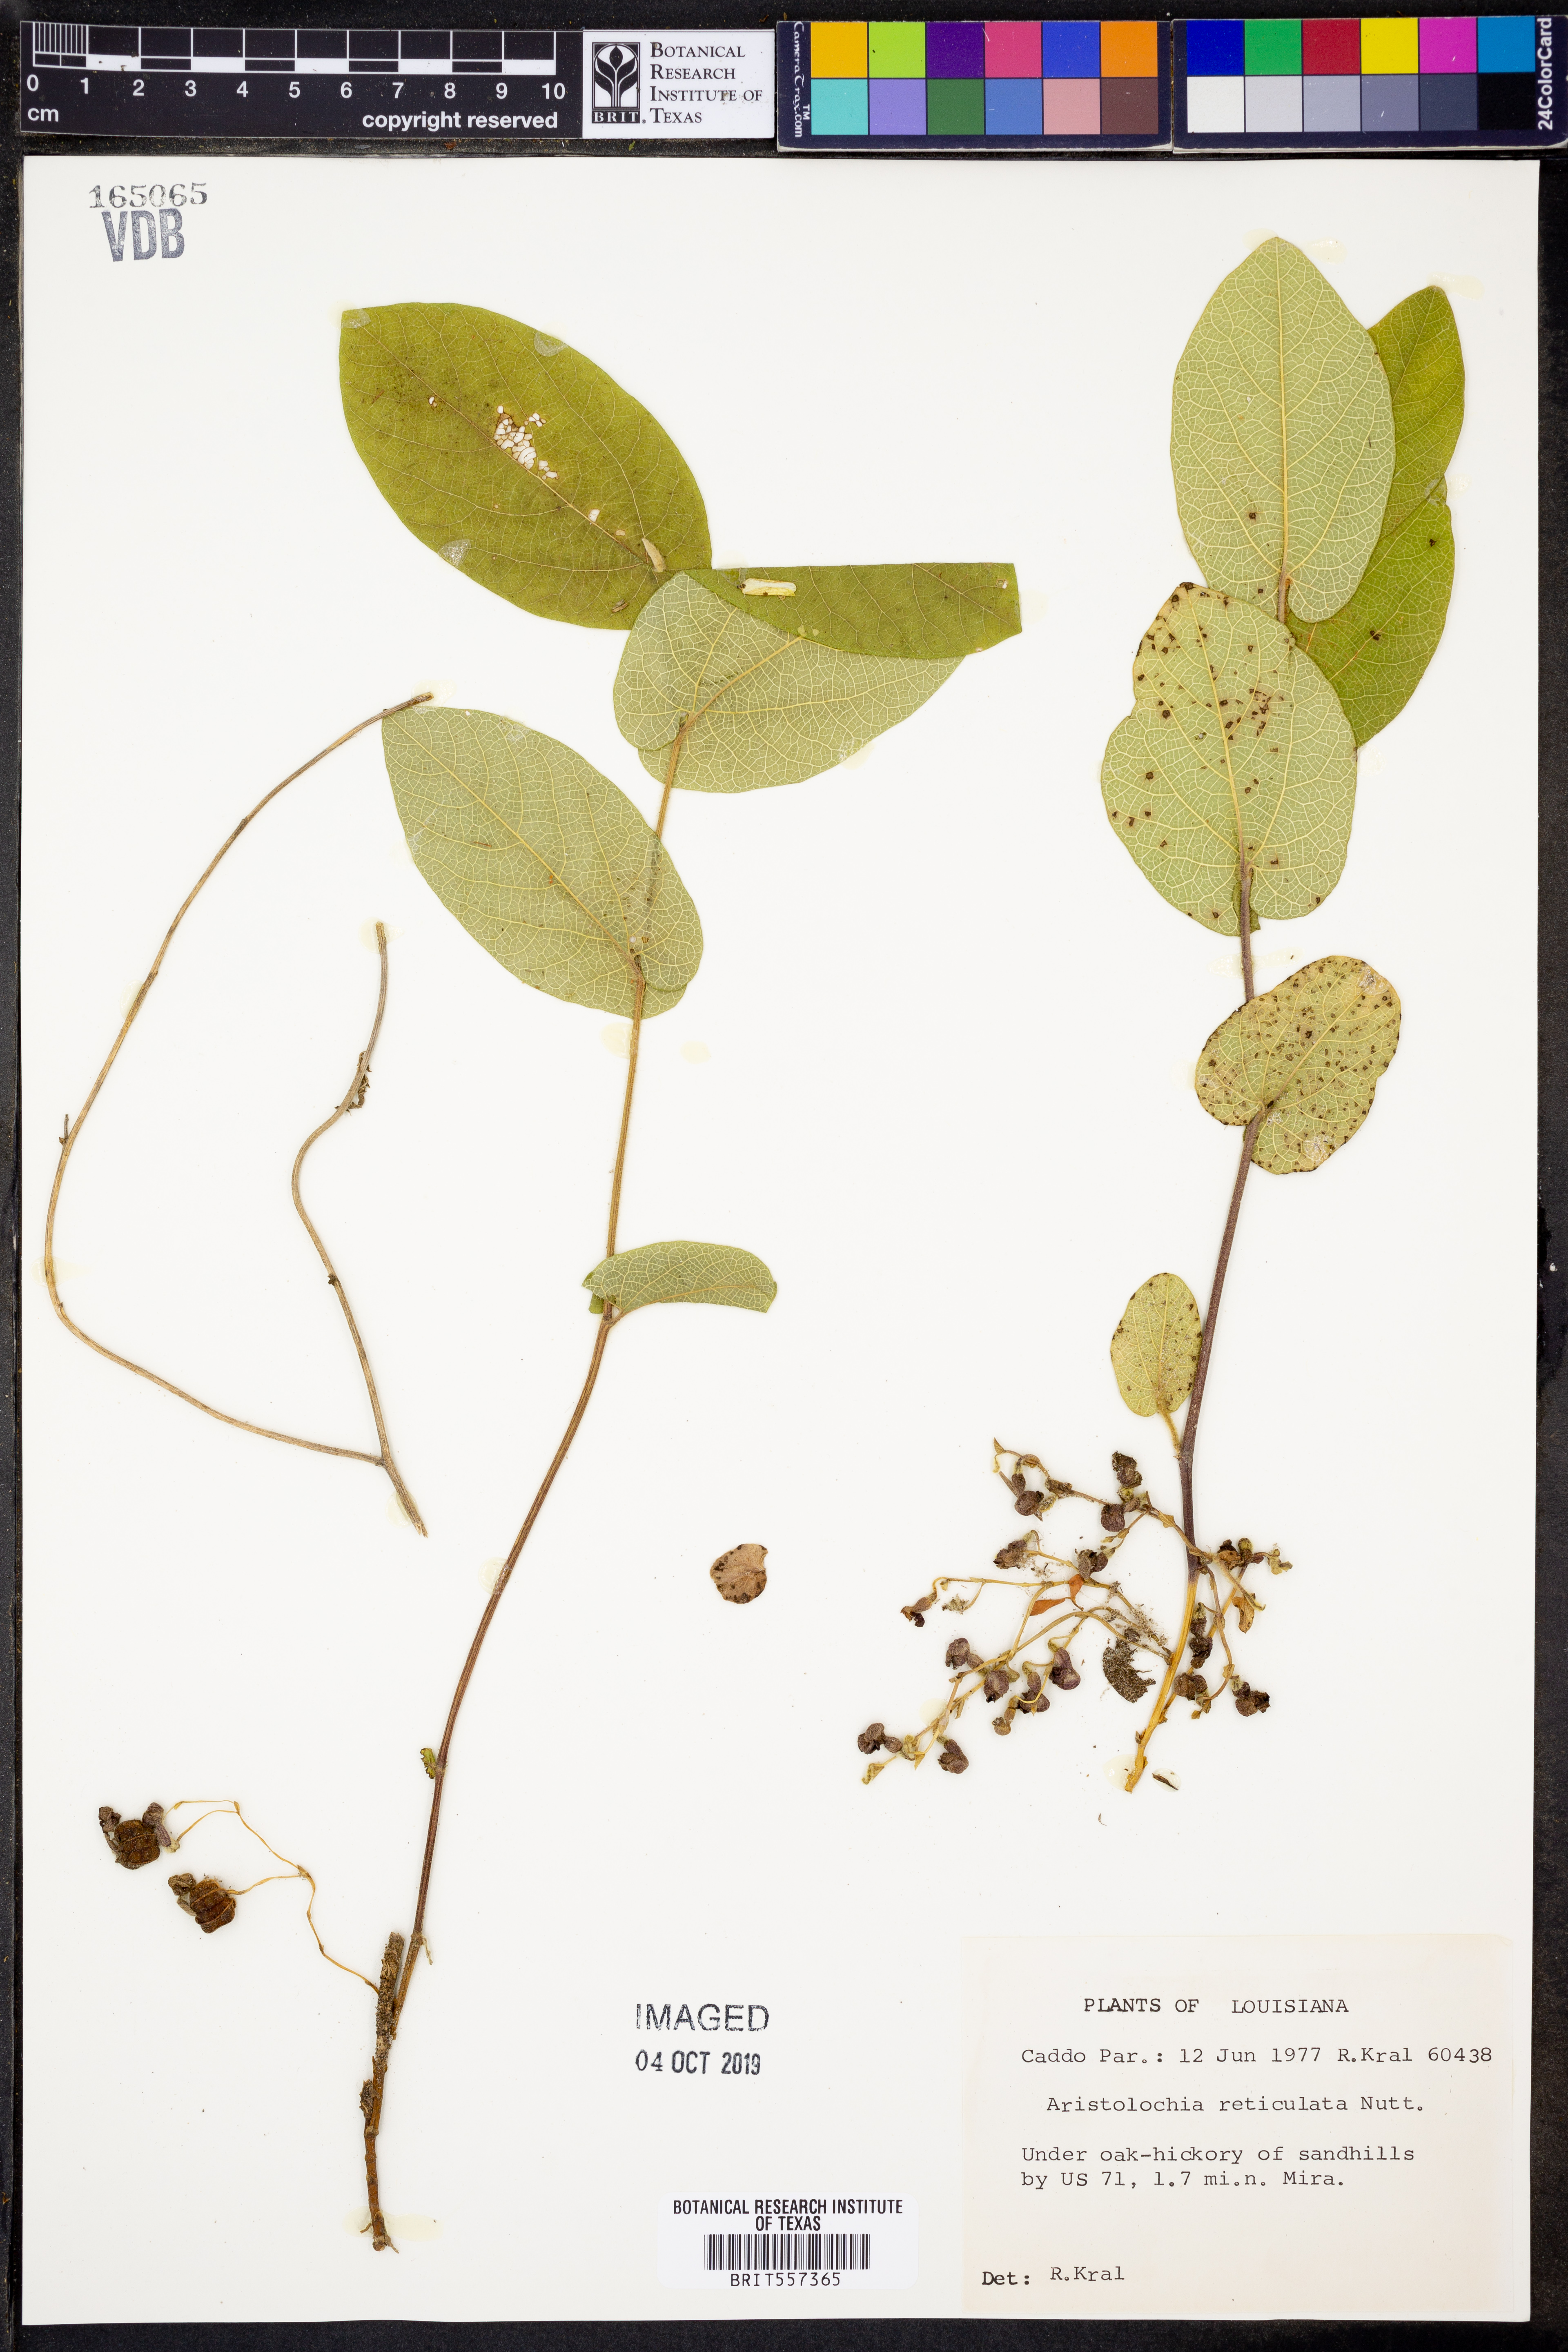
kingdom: Plantae
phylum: Tracheophyta
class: Magnoliopsida
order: Piperales
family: Aristolochiaceae
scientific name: Aristolochiaceae
